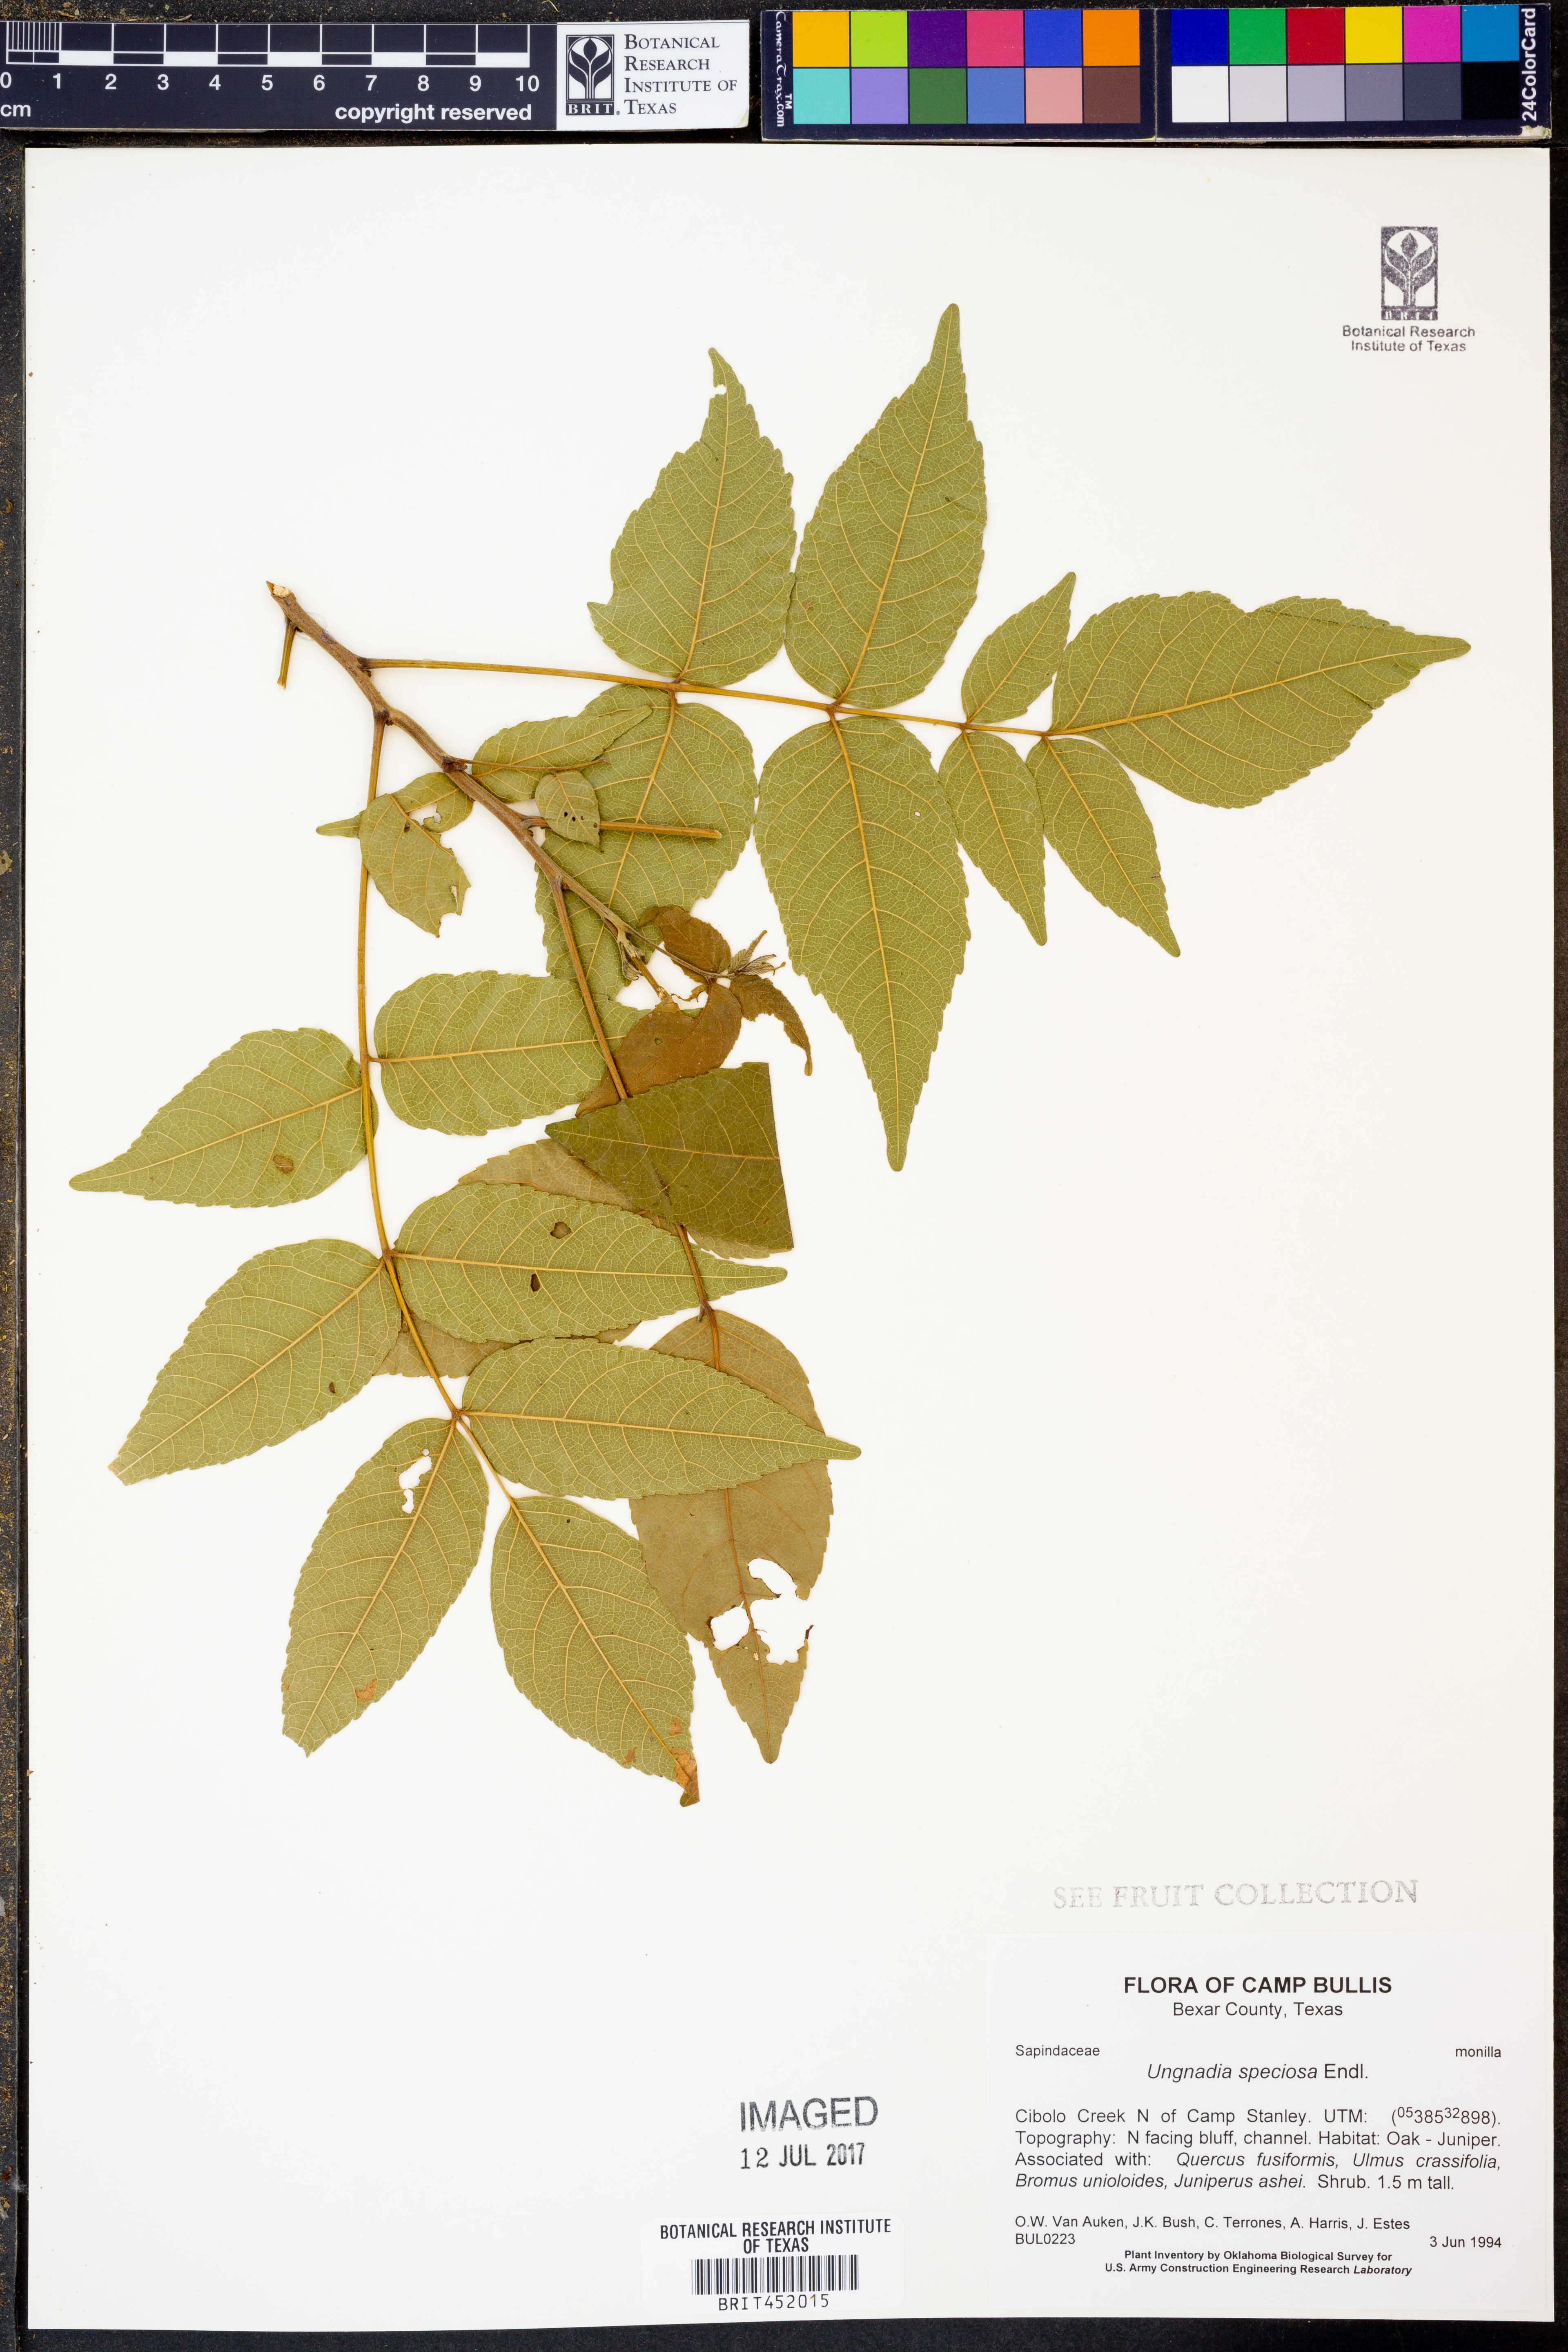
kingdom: Plantae
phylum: Tracheophyta
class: Magnoliopsida
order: Sapindales
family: Sapindaceae
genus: Ungnadia
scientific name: Ungnadia speciosa
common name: Texas-buckeye
